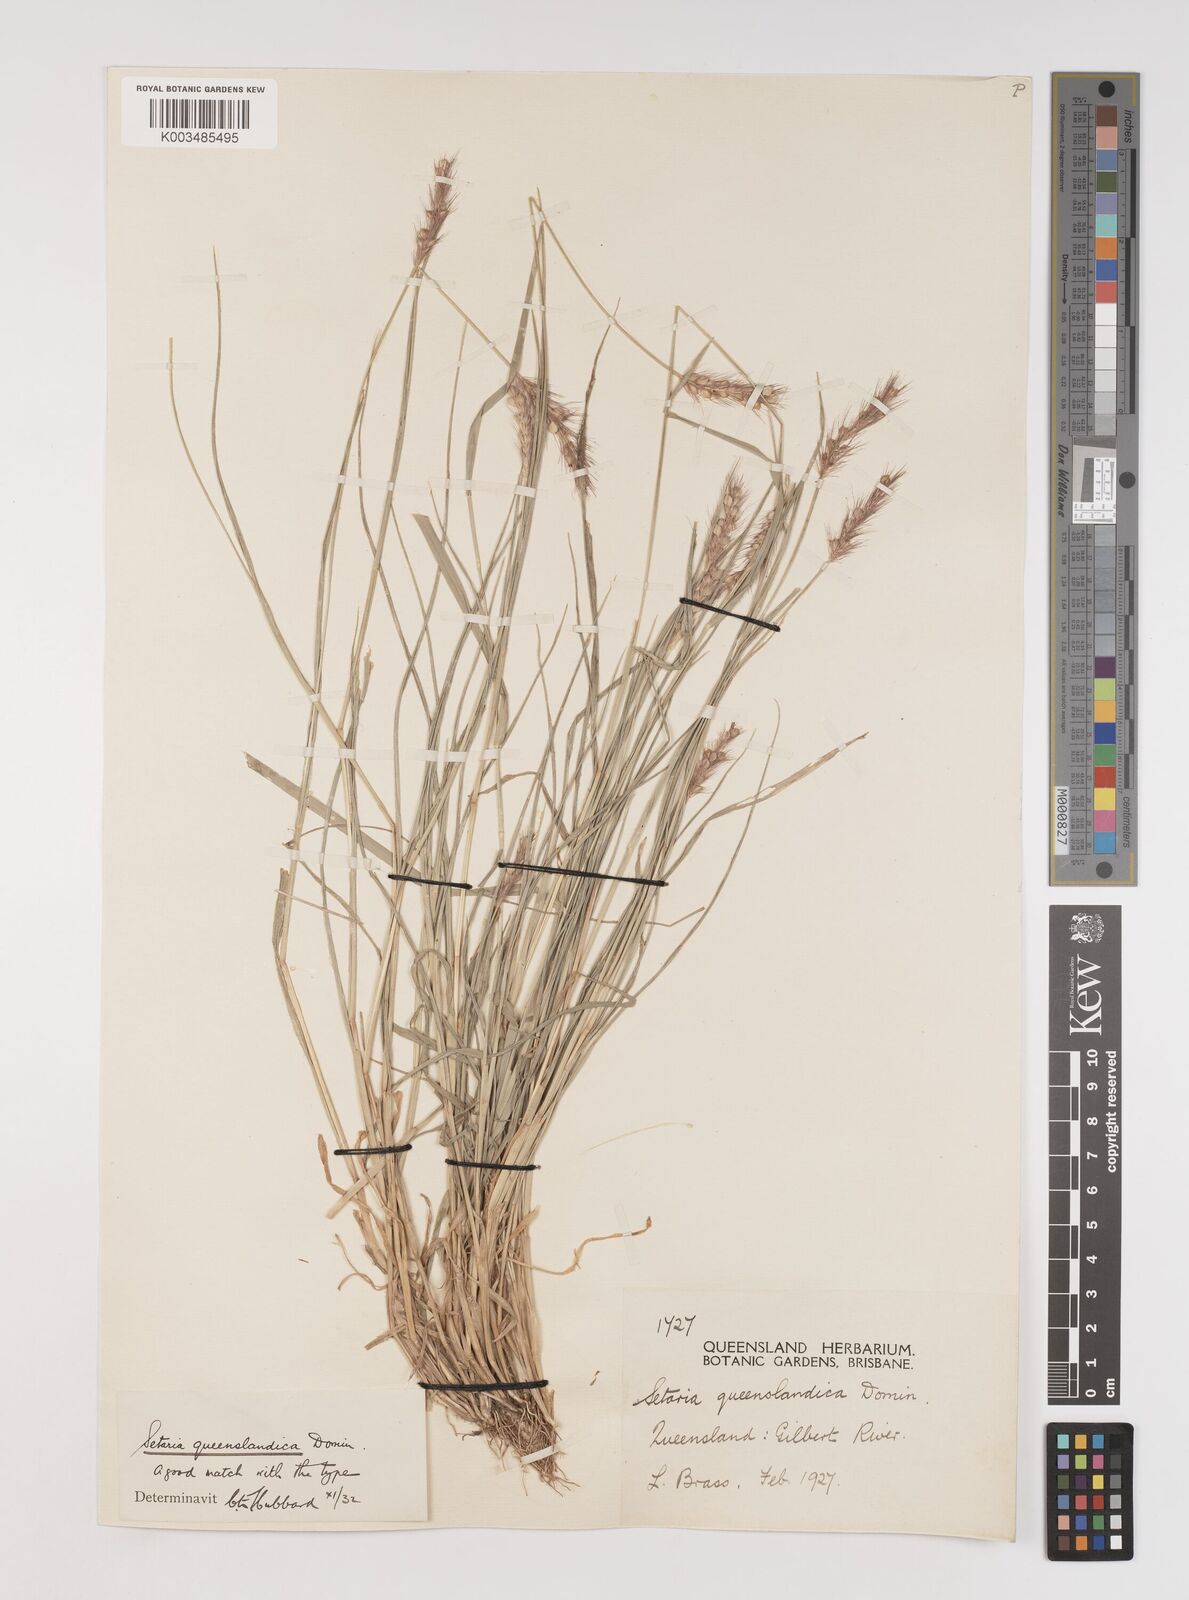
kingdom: Plantae
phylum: Tracheophyta
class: Liliopsida
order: Poales
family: Poaceae
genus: Setaria
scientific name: Setaria queenslandica
